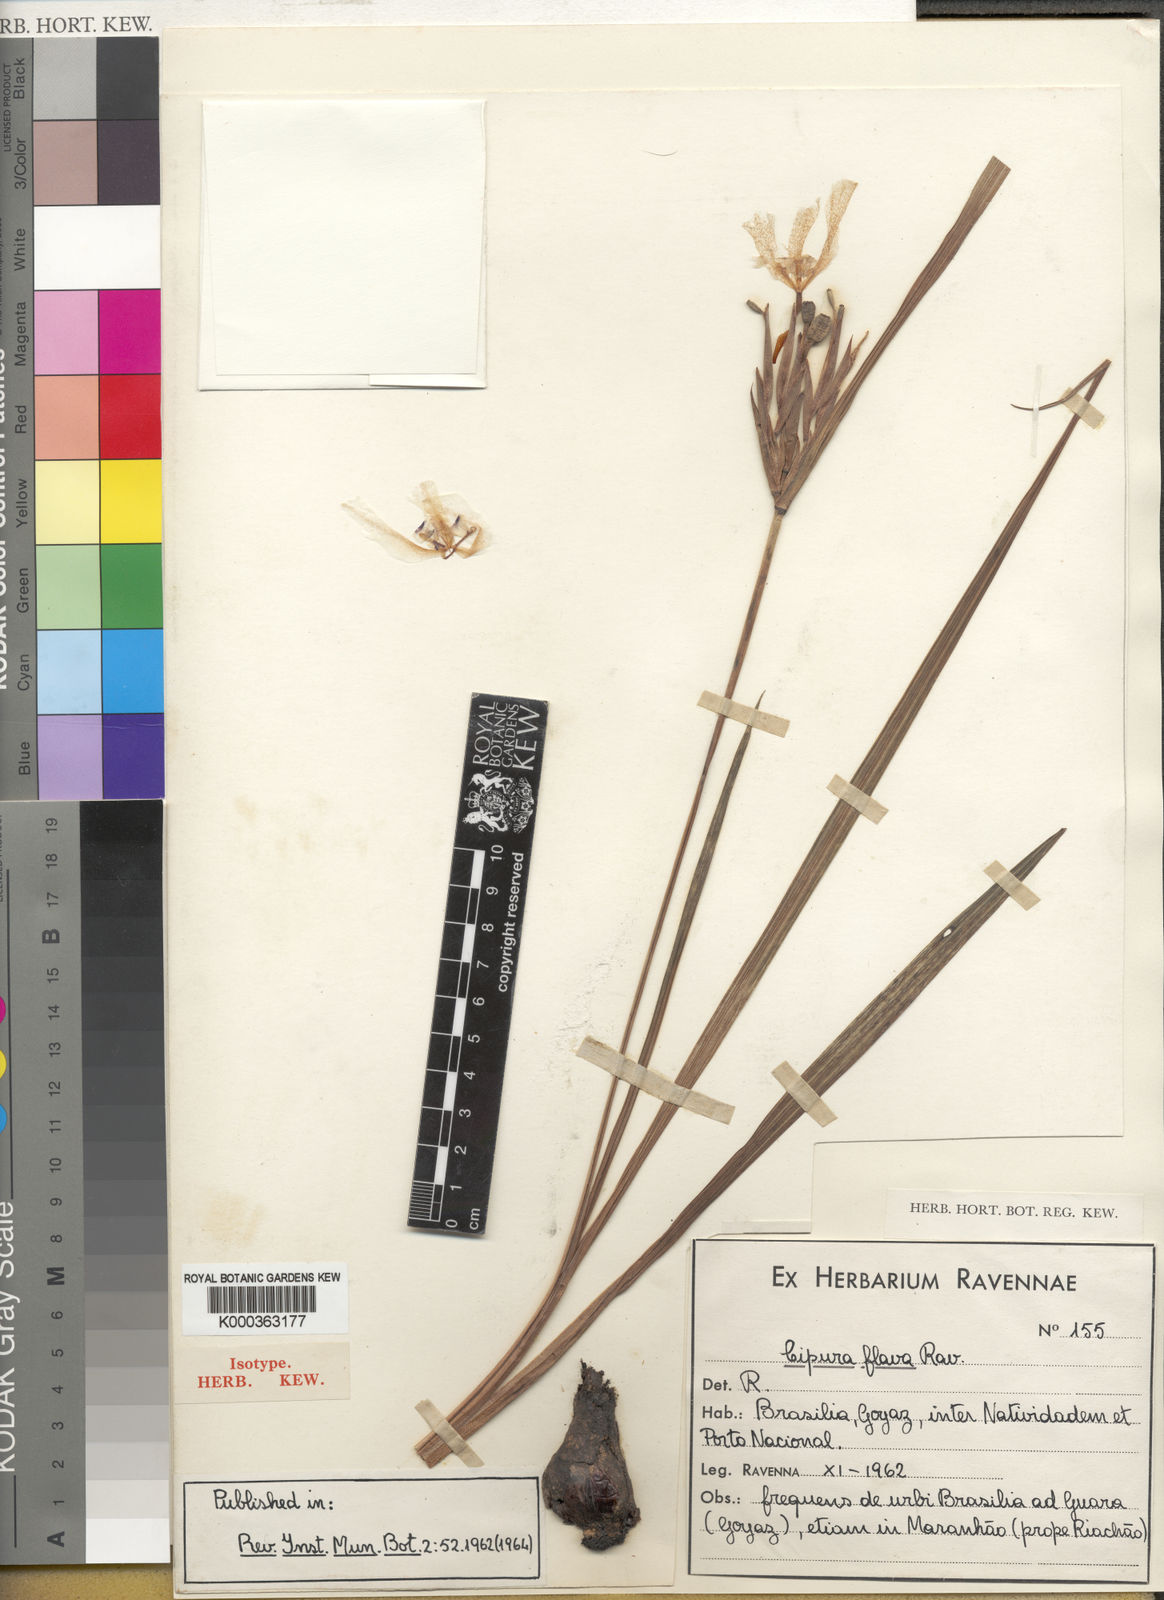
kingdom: Plantae
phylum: Tracheophyta
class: Liliopsida
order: Asparagales
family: Iridaceae
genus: Cipura
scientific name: Cipura xanthomelas
